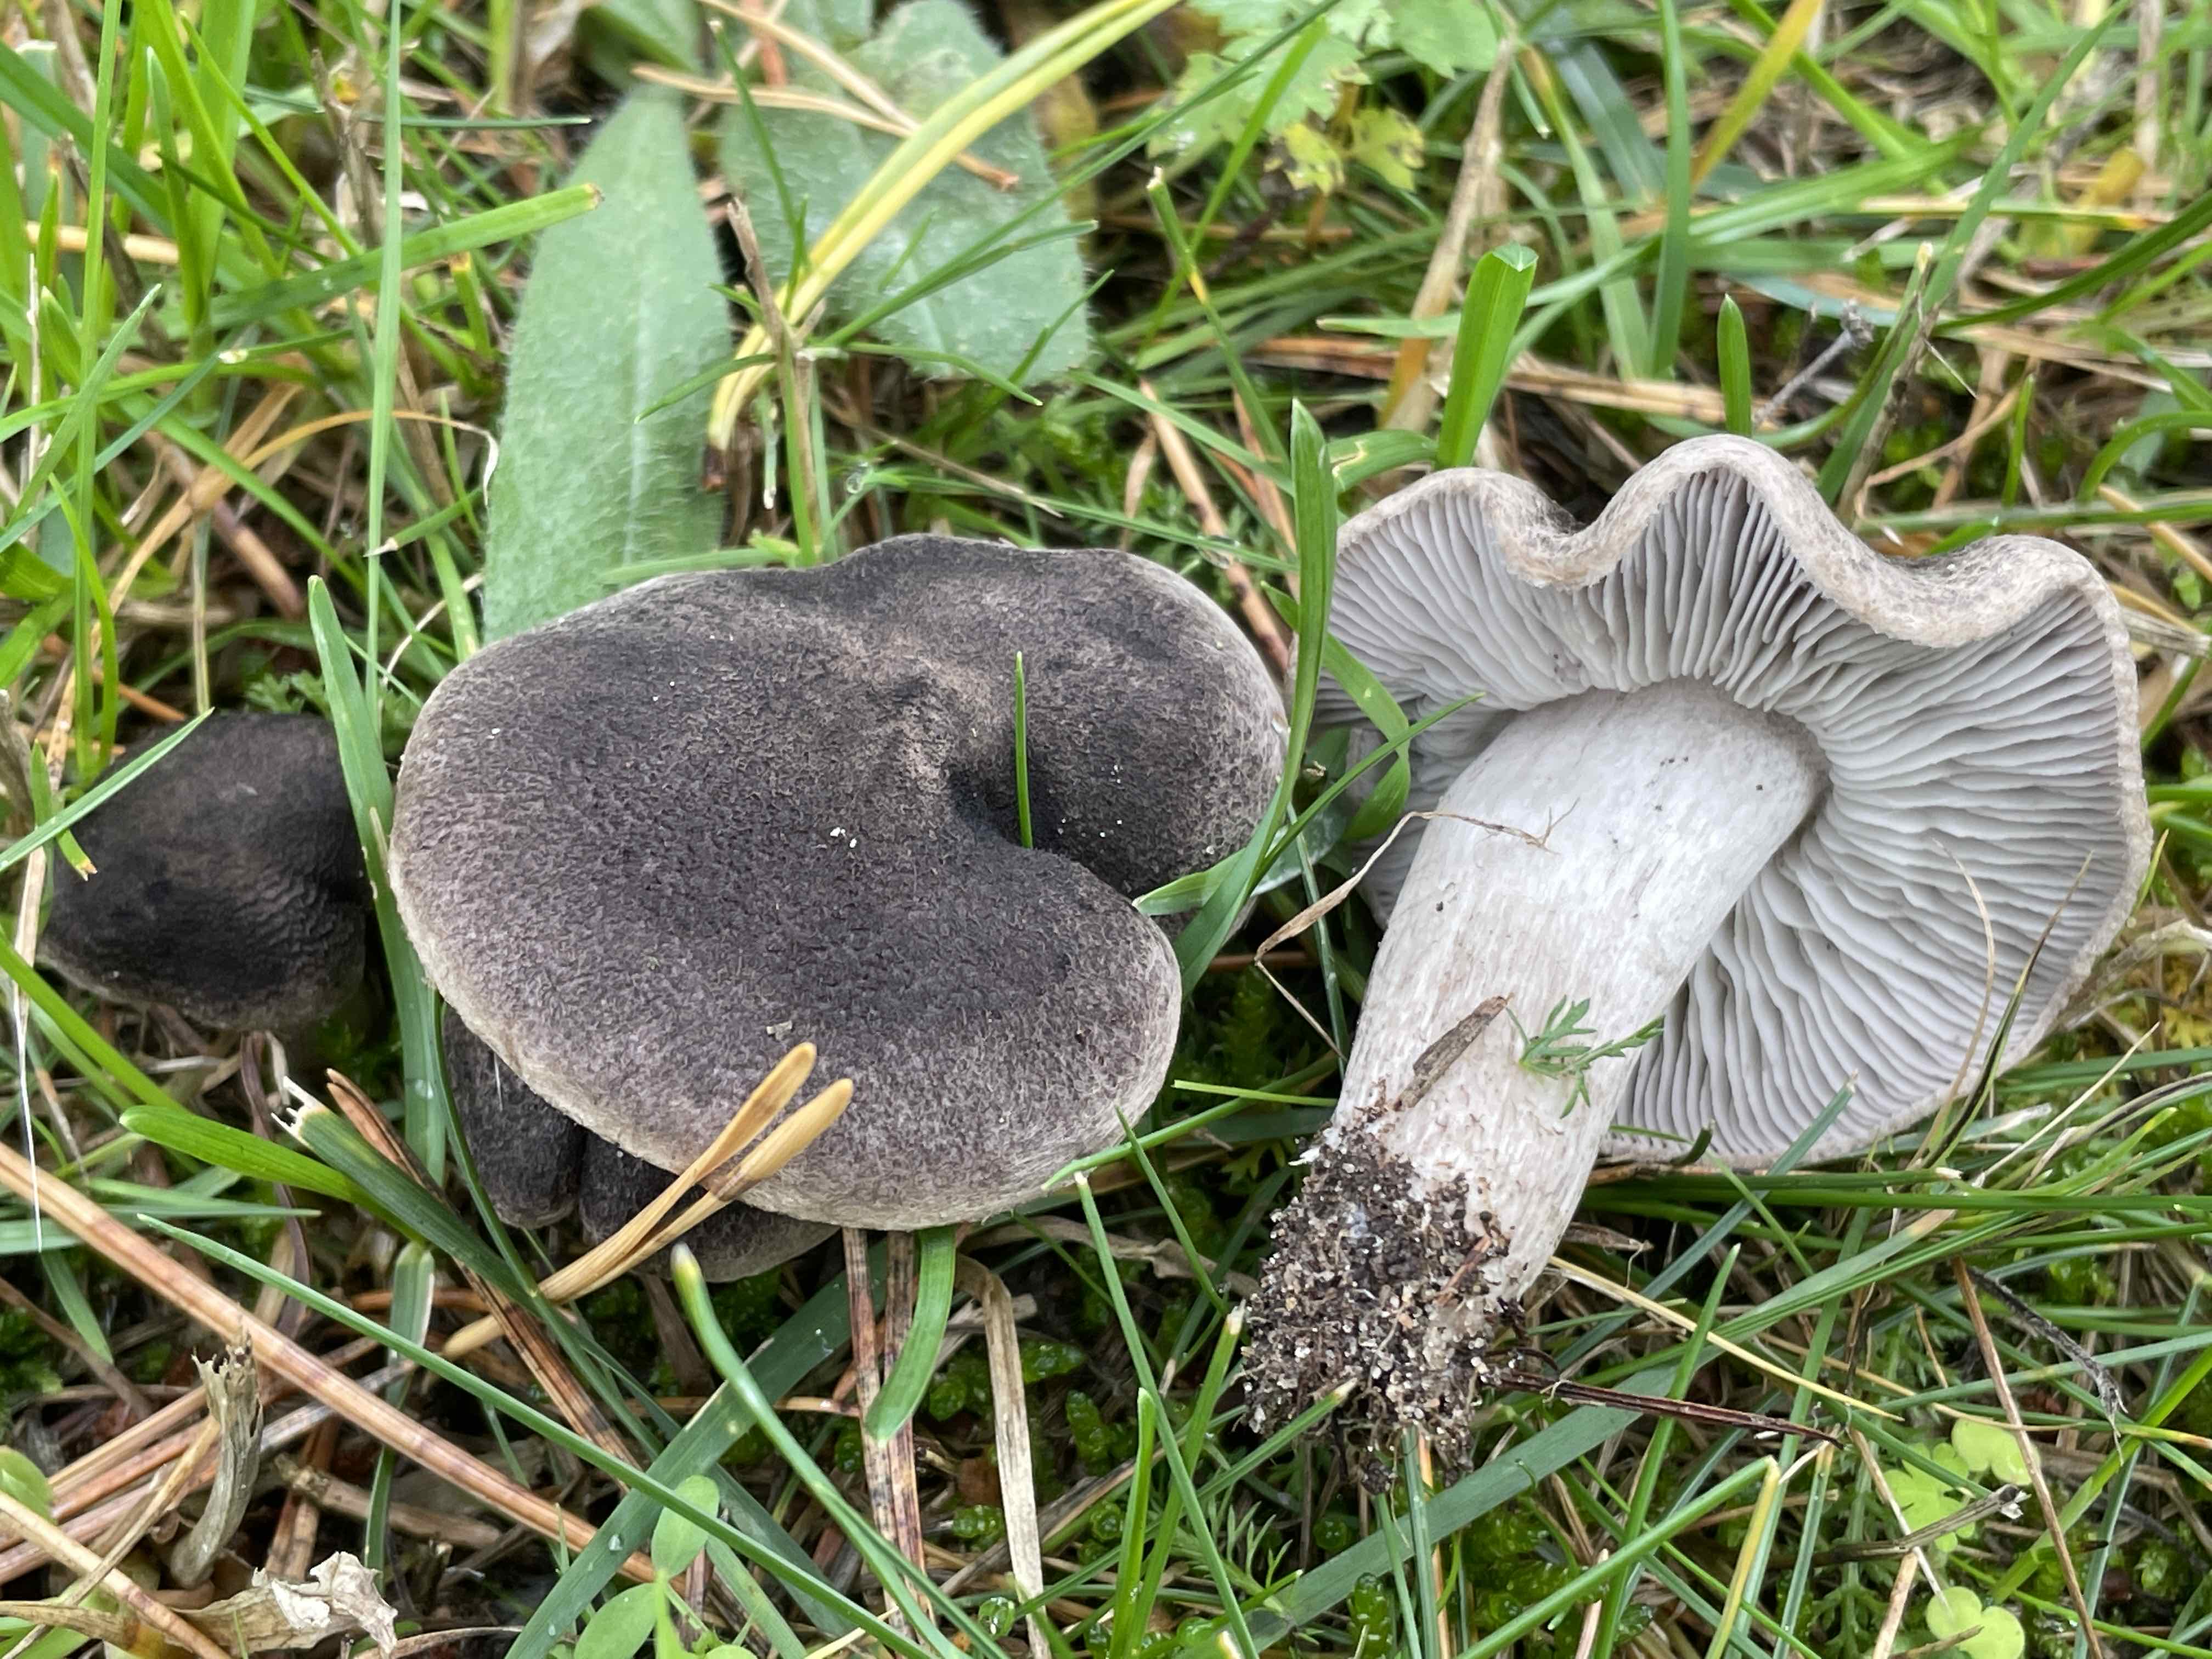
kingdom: Fungi
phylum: Basidiomycota
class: Agaricomycetes
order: Agaricales
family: Tricholomataceae
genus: Tricholoma
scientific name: Tricholoma terreum
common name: jordfarvet ridderhat
